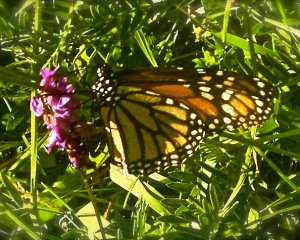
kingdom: Animalia
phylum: Arthropoda
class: Insecta
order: Lepidoptera
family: Nymphalidae
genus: Danaus
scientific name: Danaus plexippus
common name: Monarch
